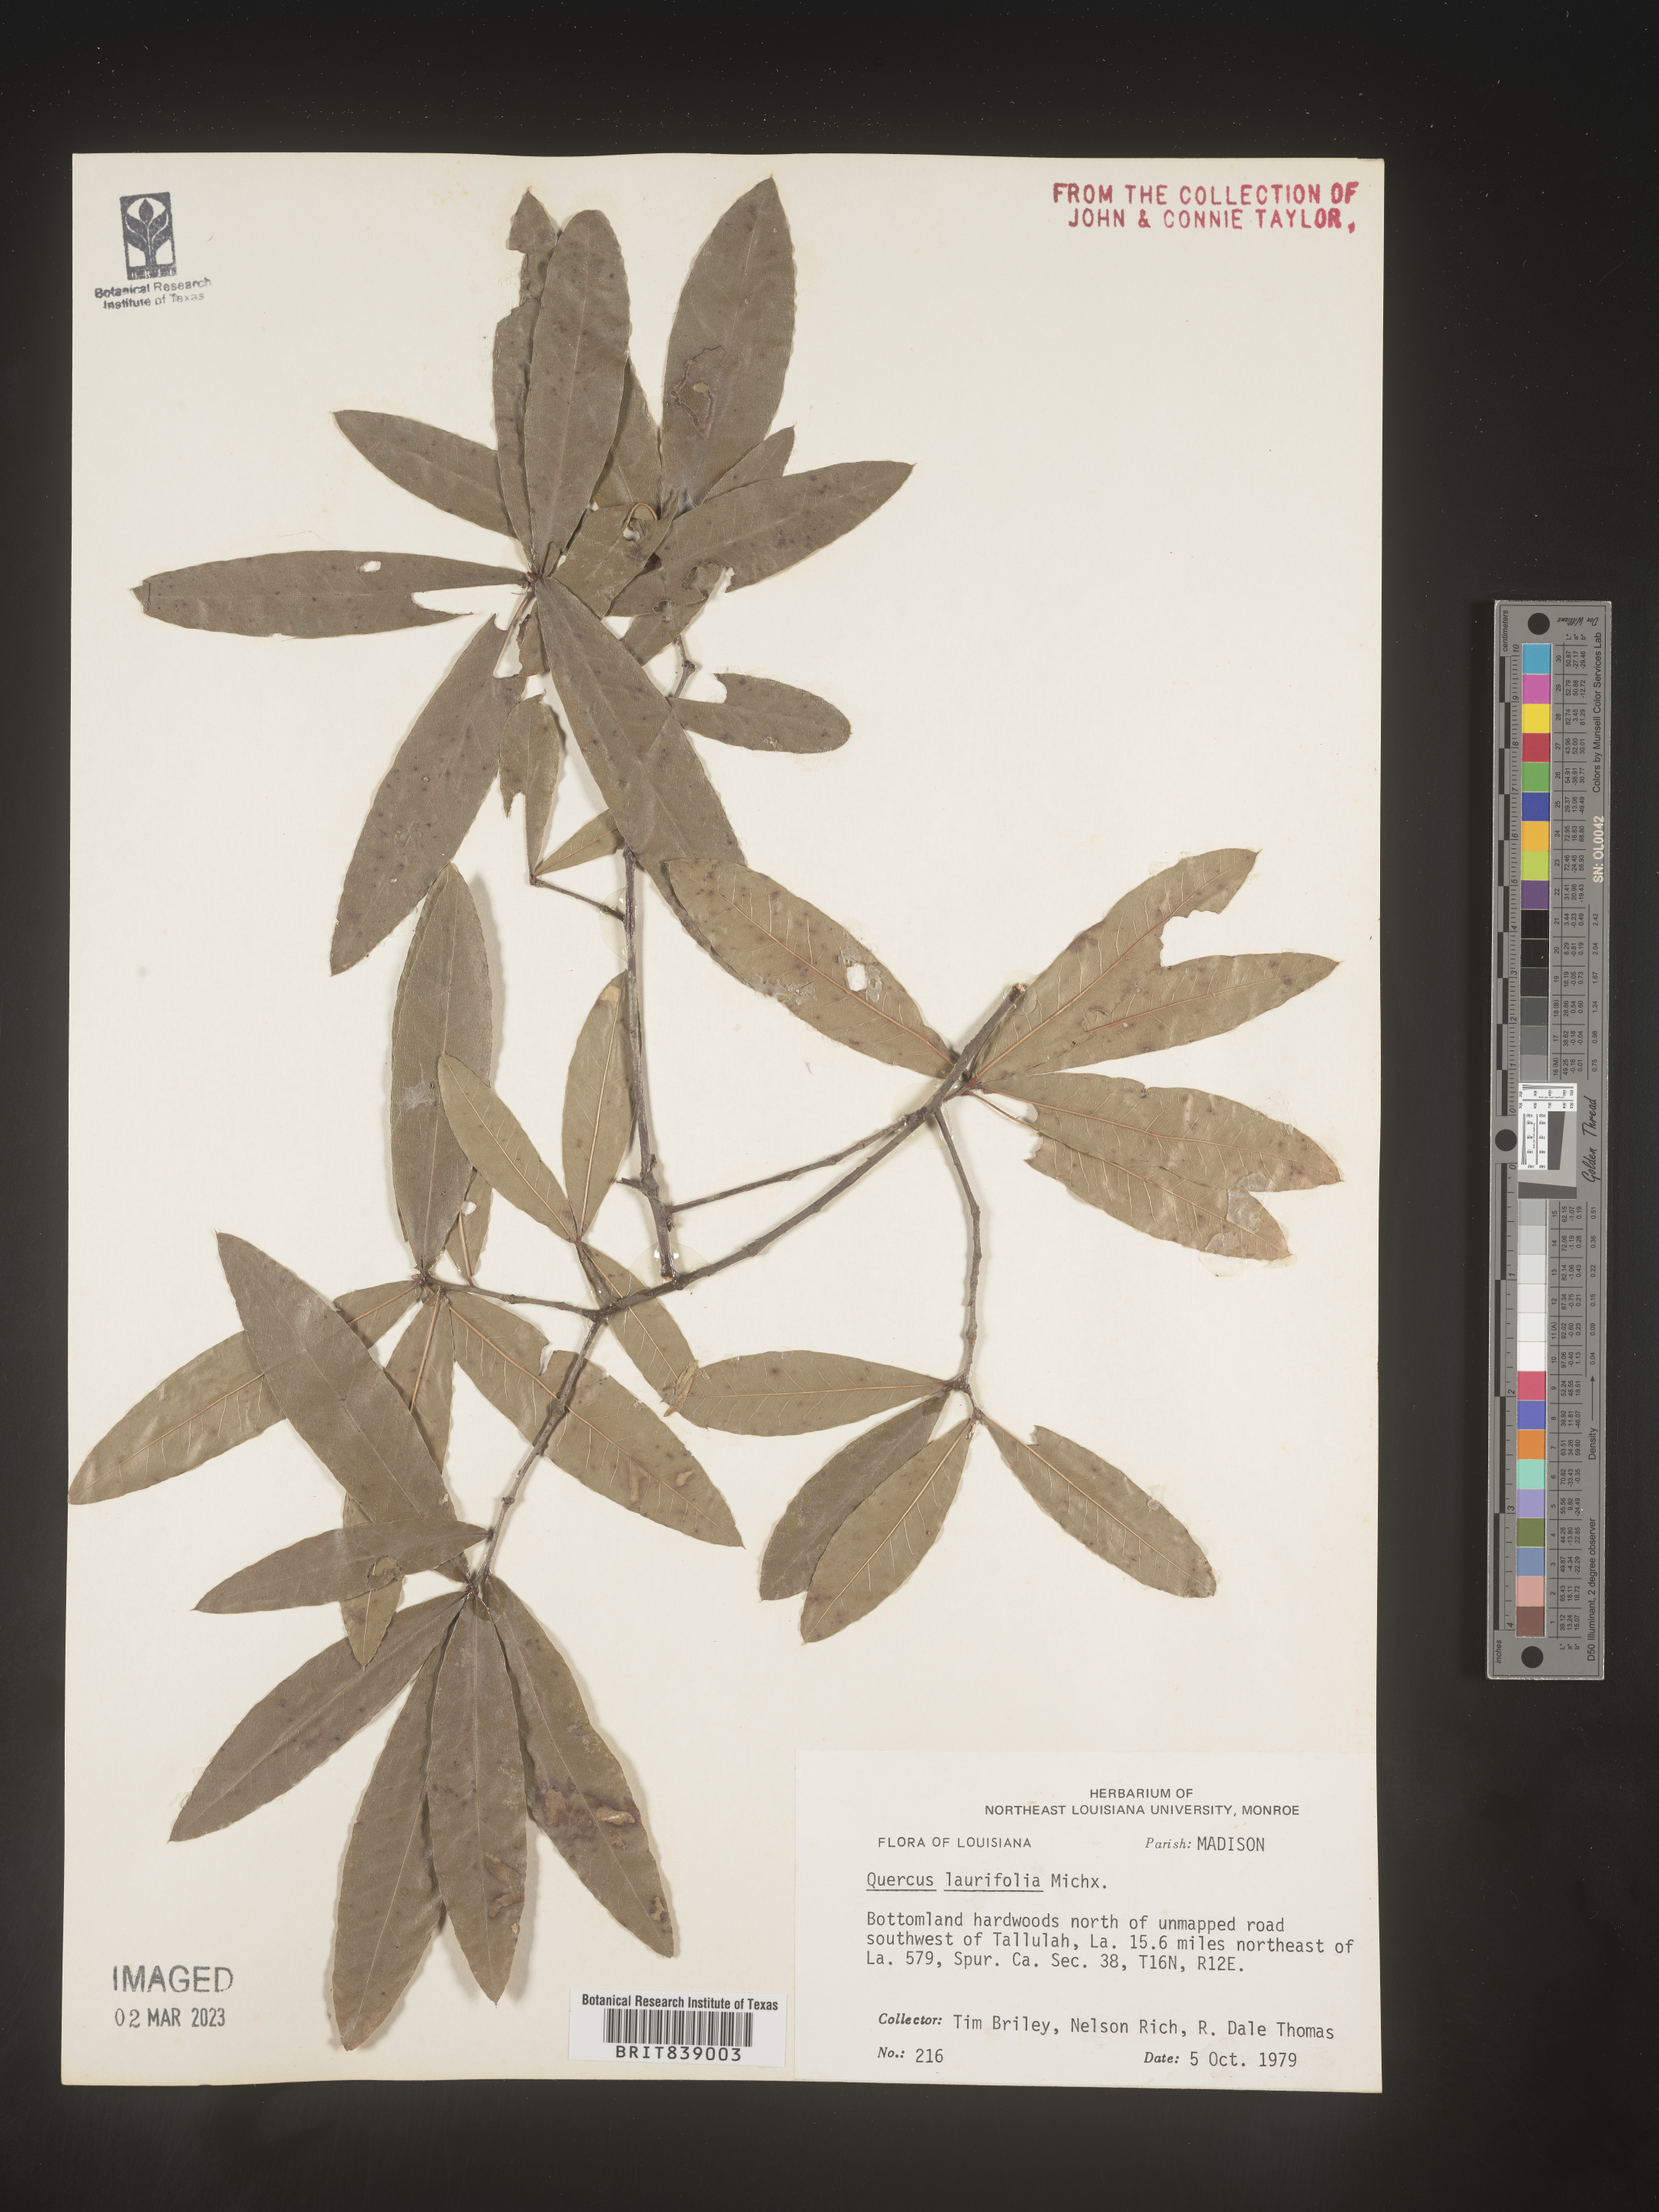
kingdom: Plantae
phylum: Tracheophyta
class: Magnoliopsida
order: Fagales
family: Fagaceae
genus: Quercus
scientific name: Quercus laurifolia
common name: Swamp laurel oak
